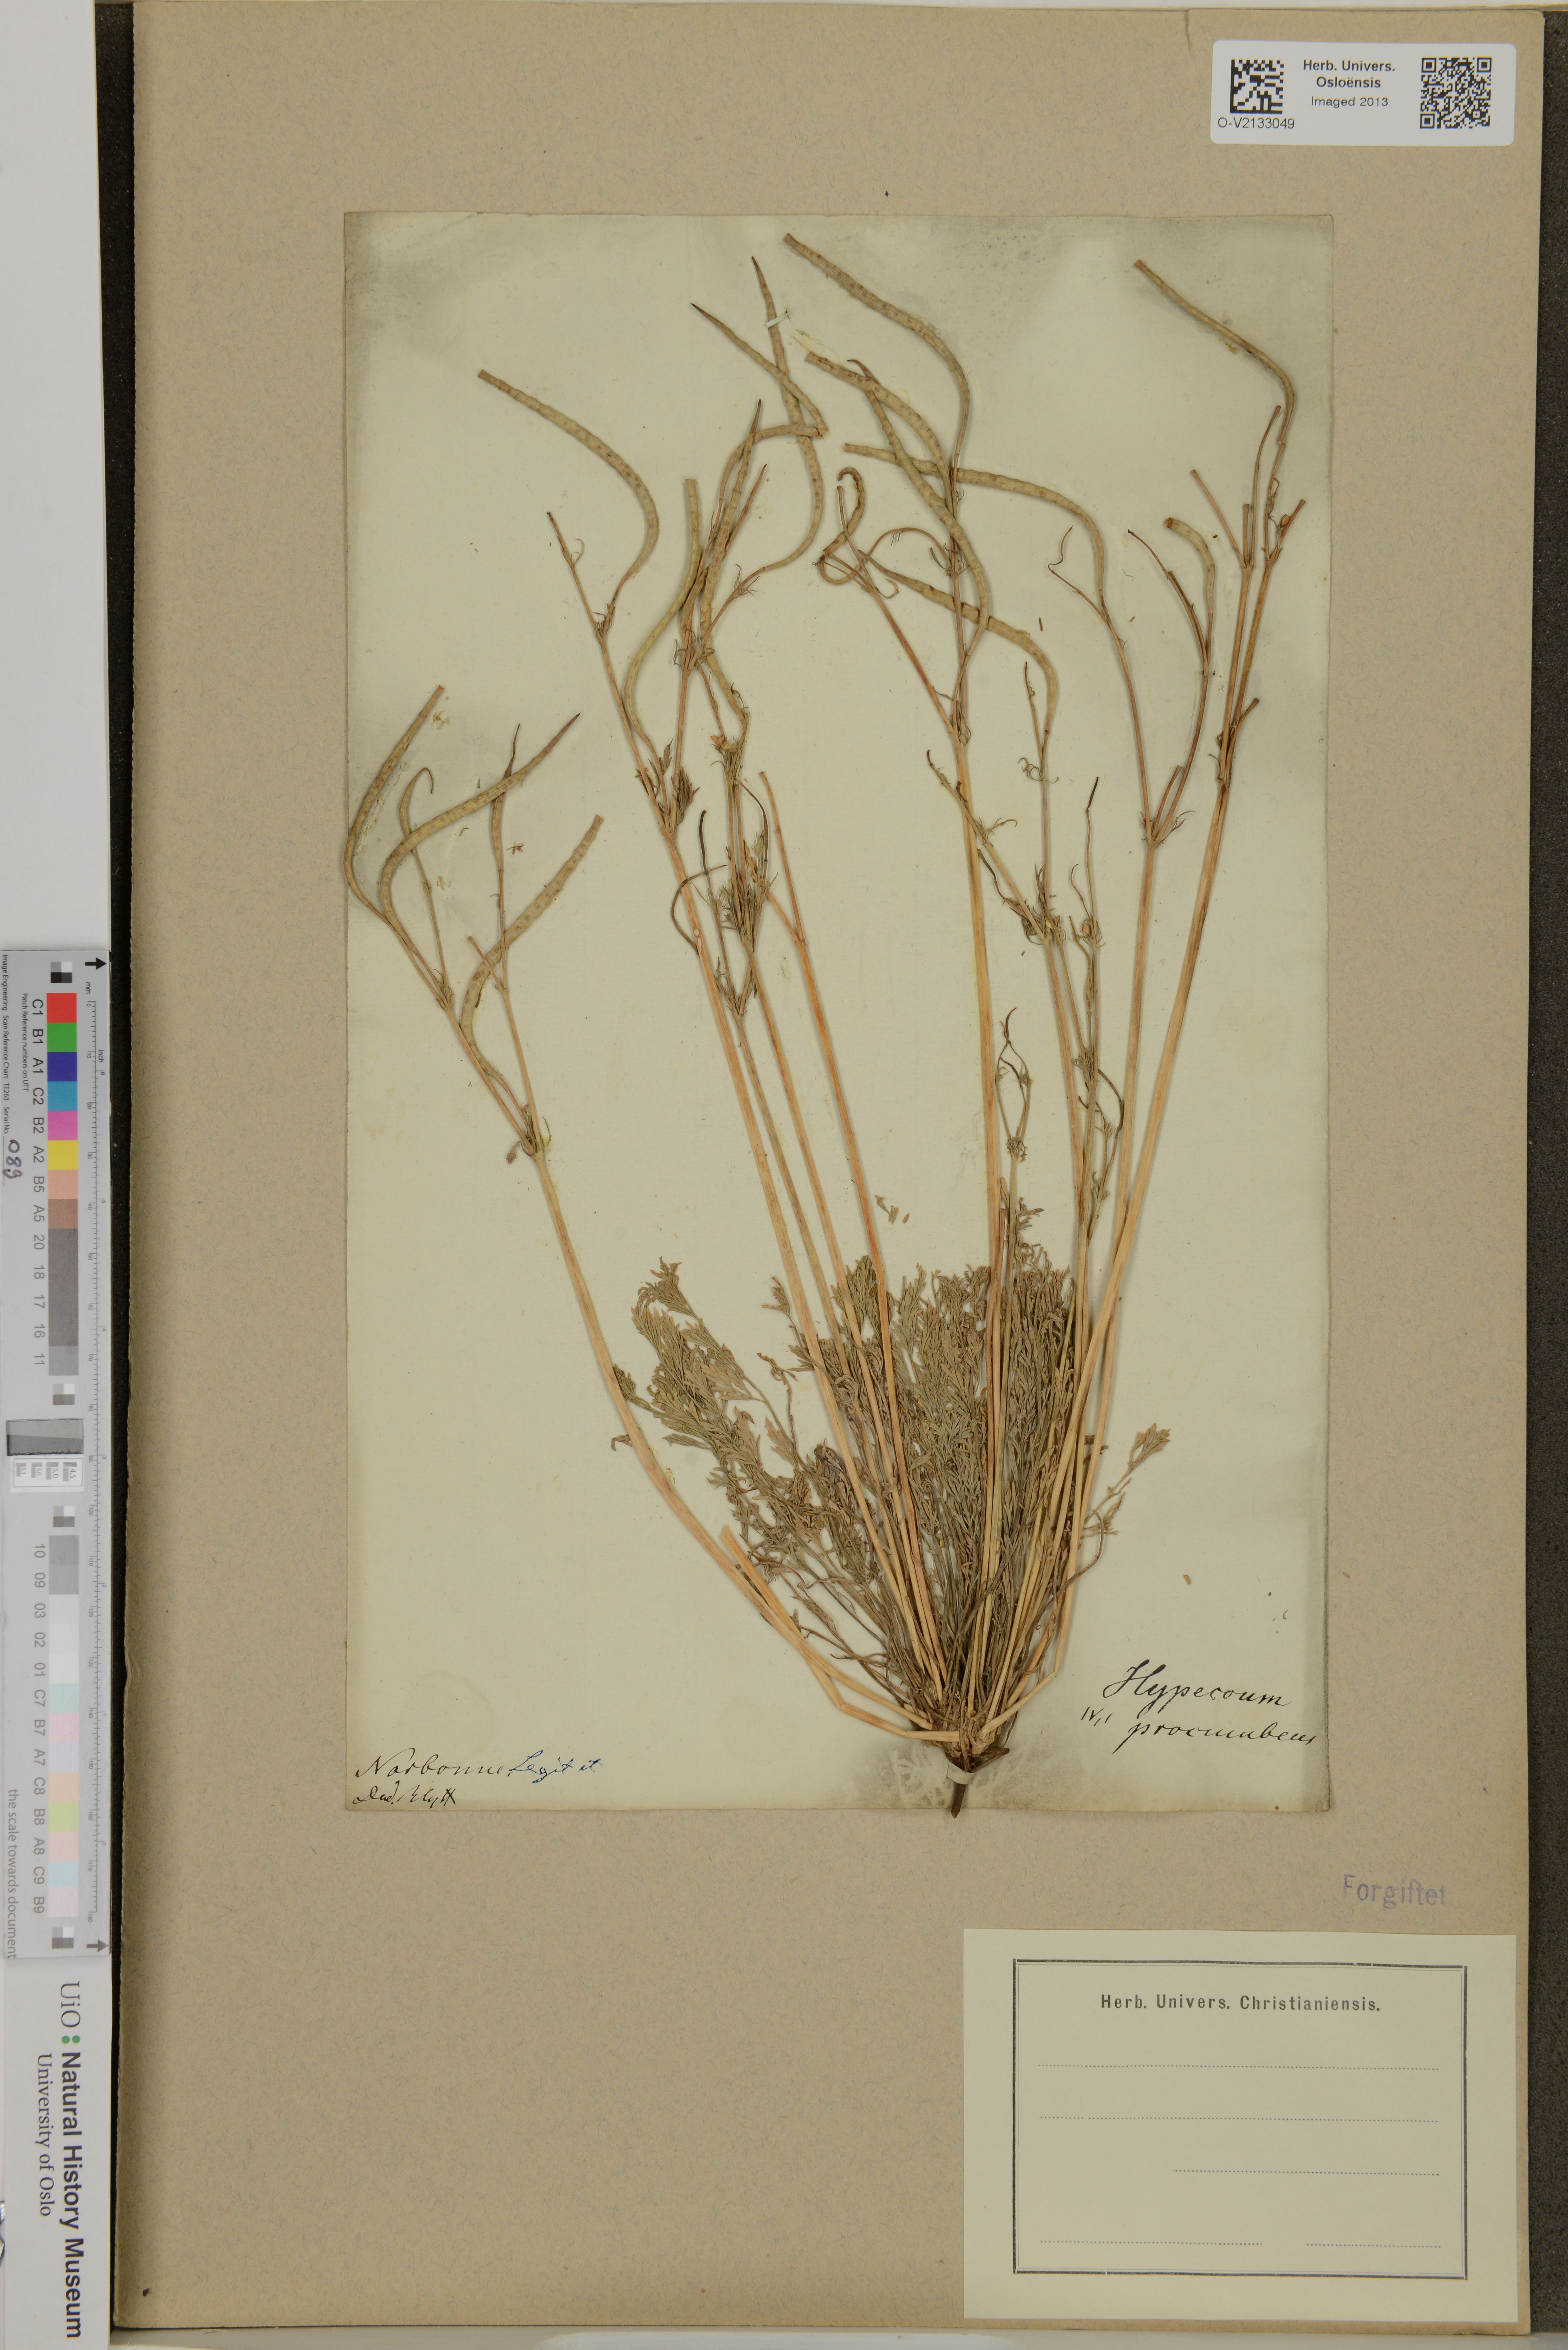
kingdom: Plantae
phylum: Tracheophyta
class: Magnoliopsida
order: Ranunculales
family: Papaveraceae
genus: Hypecoum
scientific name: Hypecoum procumbens
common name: Procumbent hypecoum
